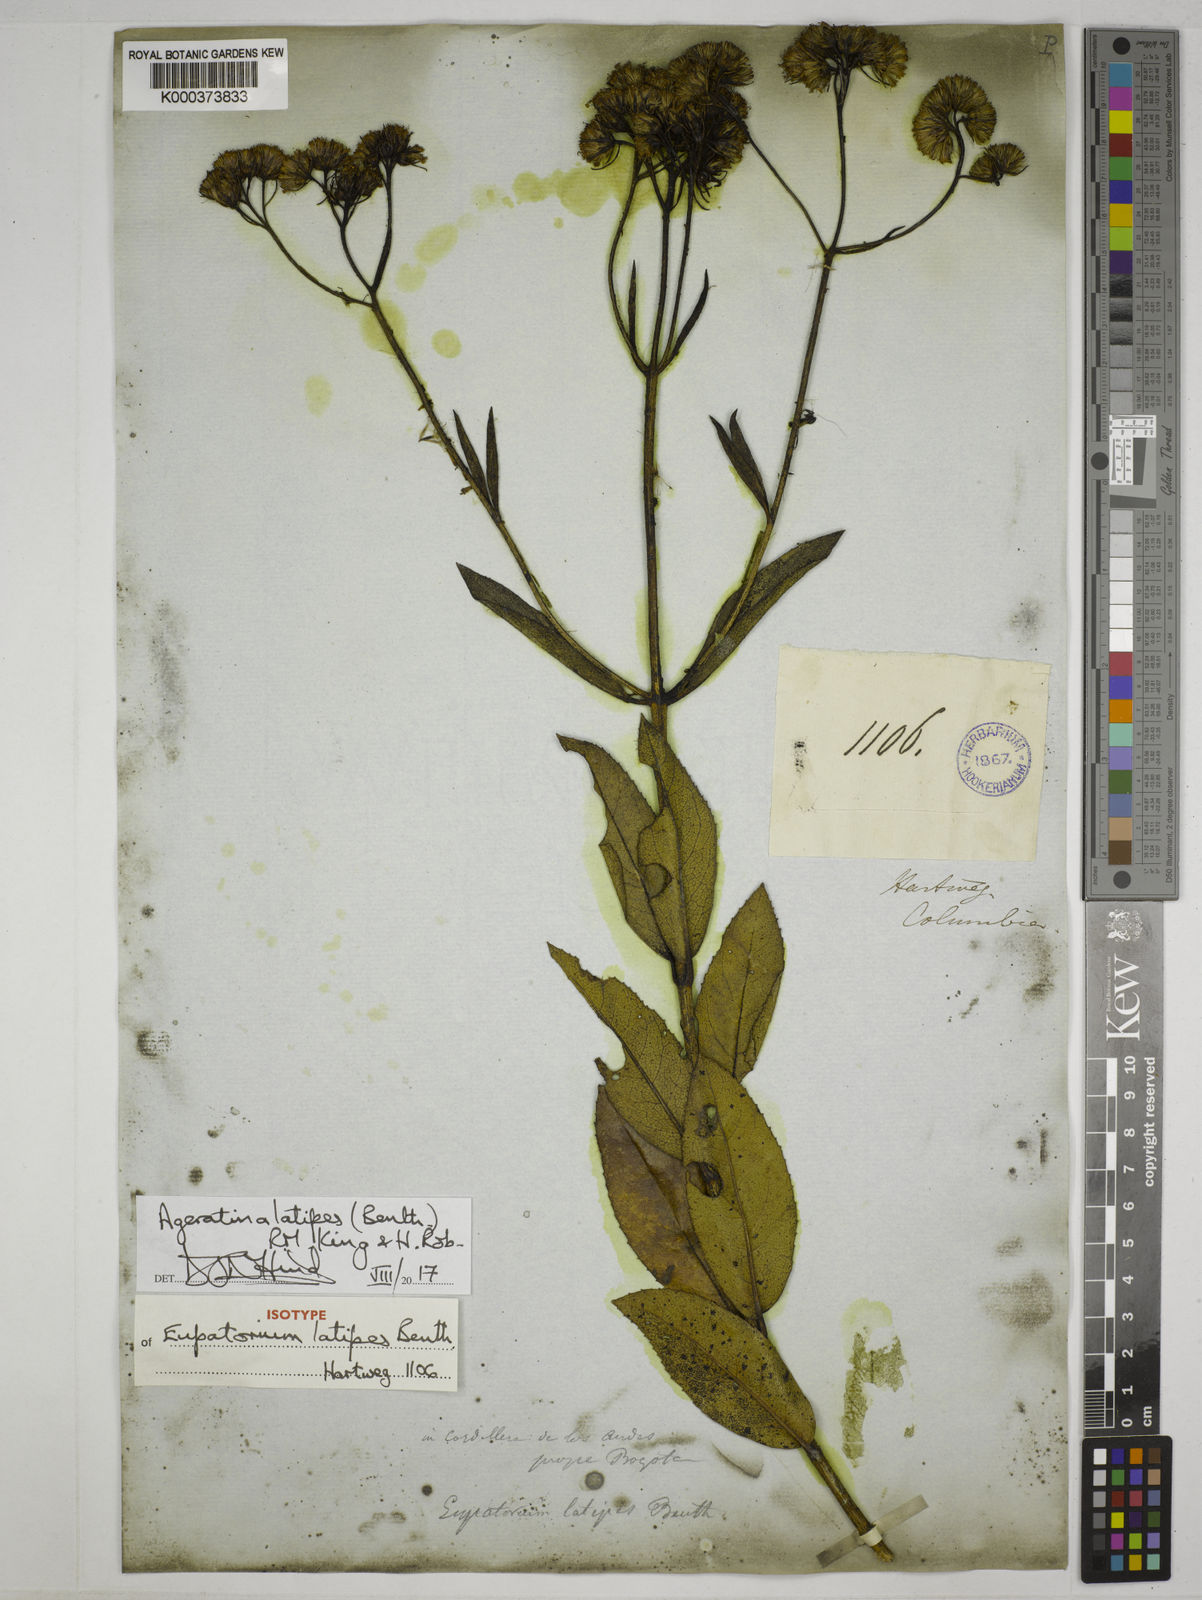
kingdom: Plantae
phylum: Tracheophyta
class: Magnoliopsida
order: Asterales
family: Asteraceae
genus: Ageratina
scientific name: Ageratina latipes
